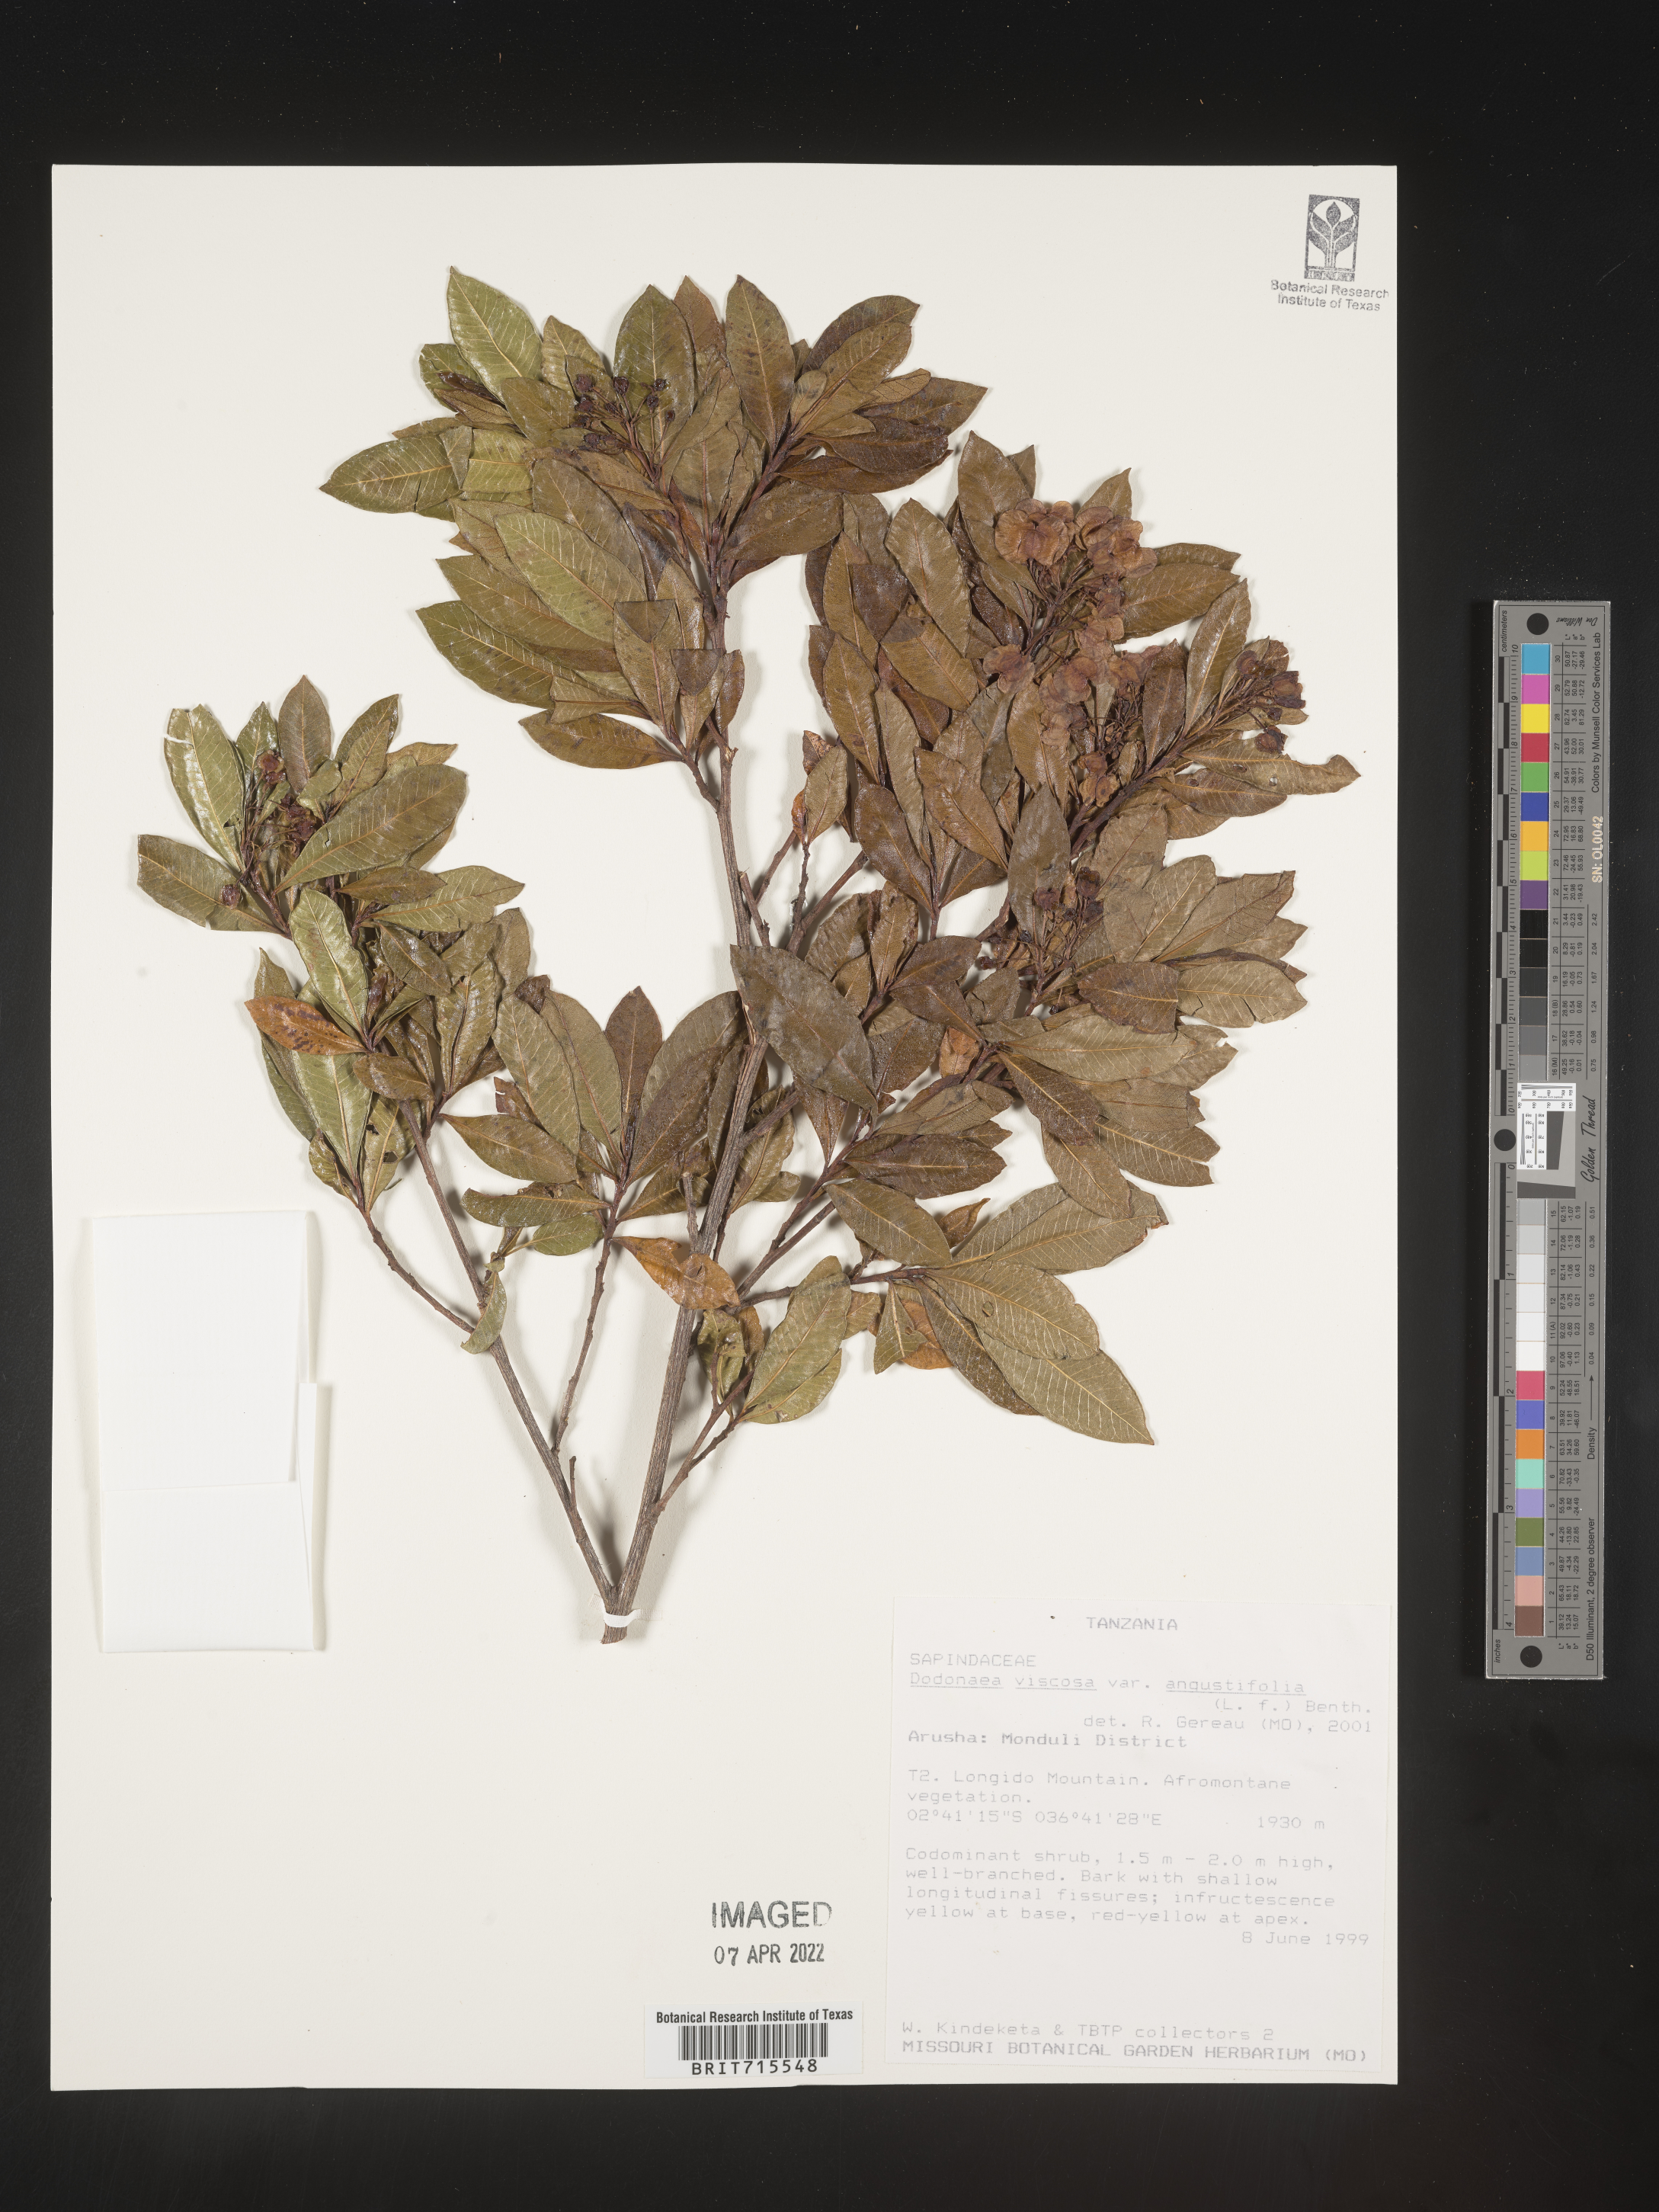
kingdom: Plantae
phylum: Tracheophyta
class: Magnoliopsida
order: Sapindales
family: Sapindaceae
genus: Dodonaea
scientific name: Dodonaea viscosa
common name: Hopbush
